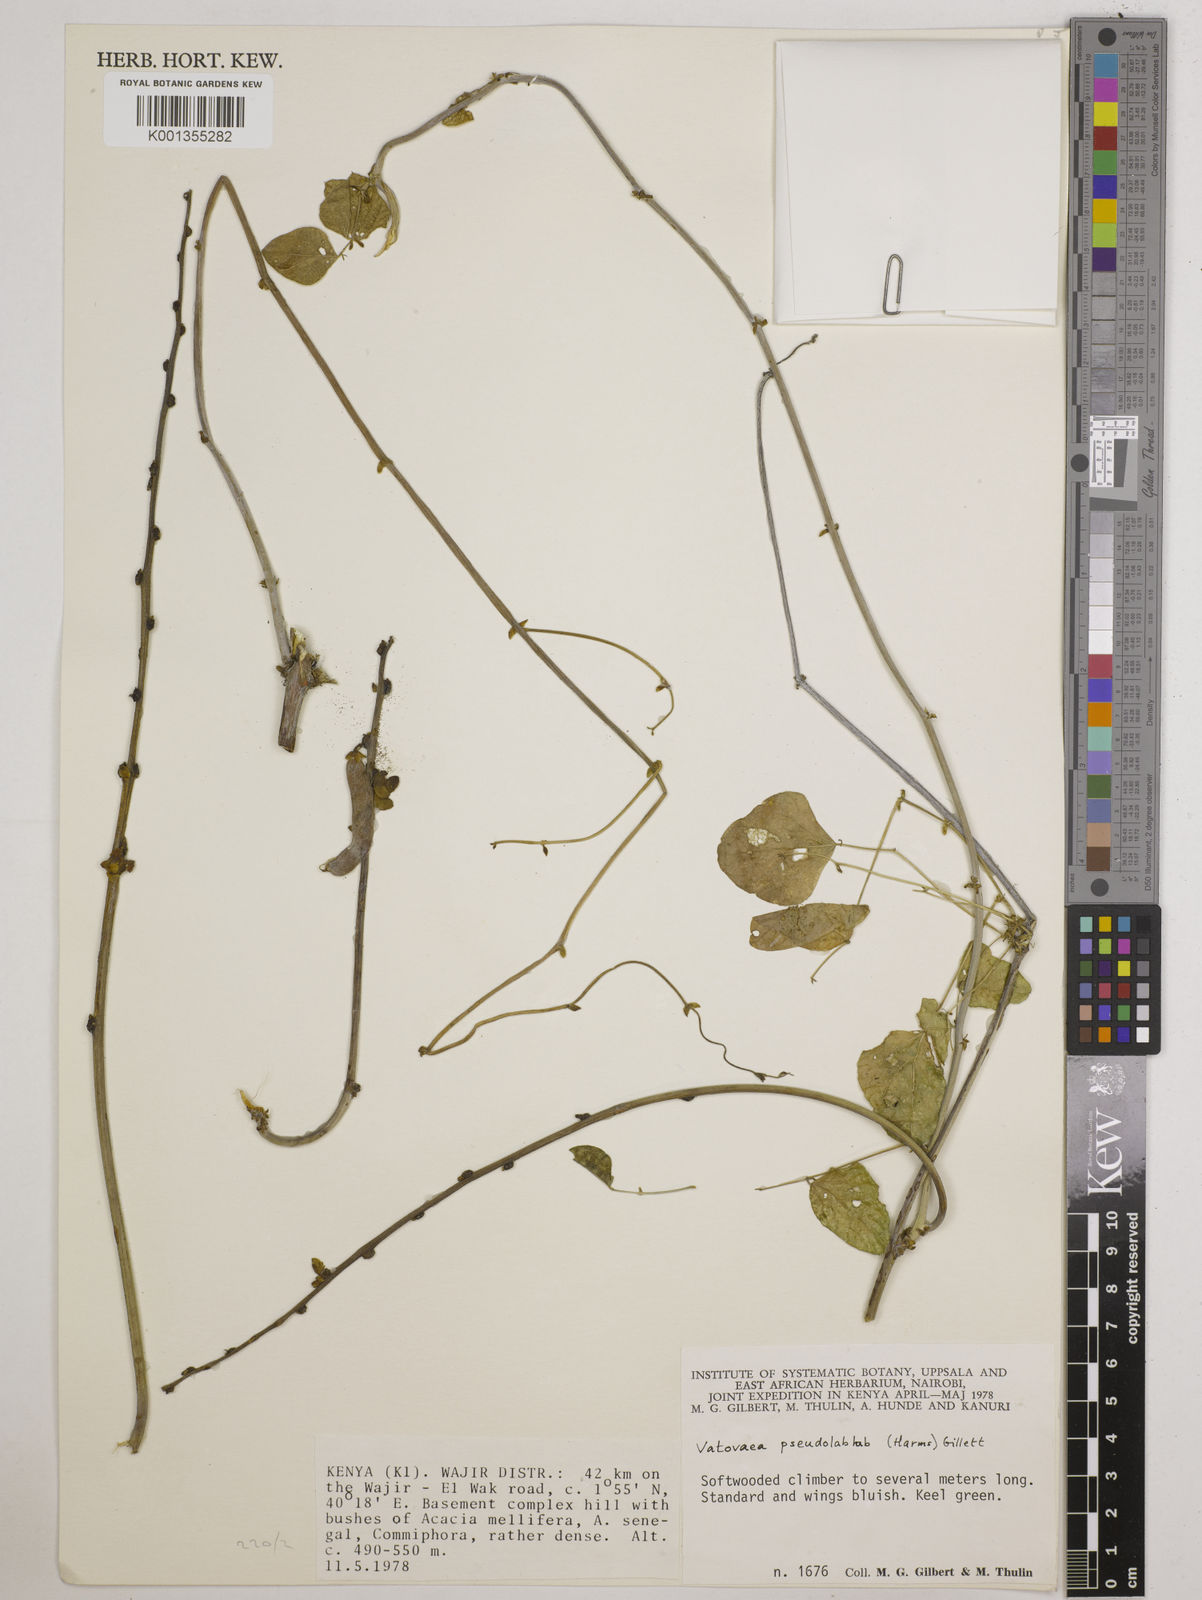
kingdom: Plantae
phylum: Tracheophyta
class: Magnoliopsida
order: Fabales
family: Fabaceae
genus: Vatovaea
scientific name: Vatovaea pseudolablab
